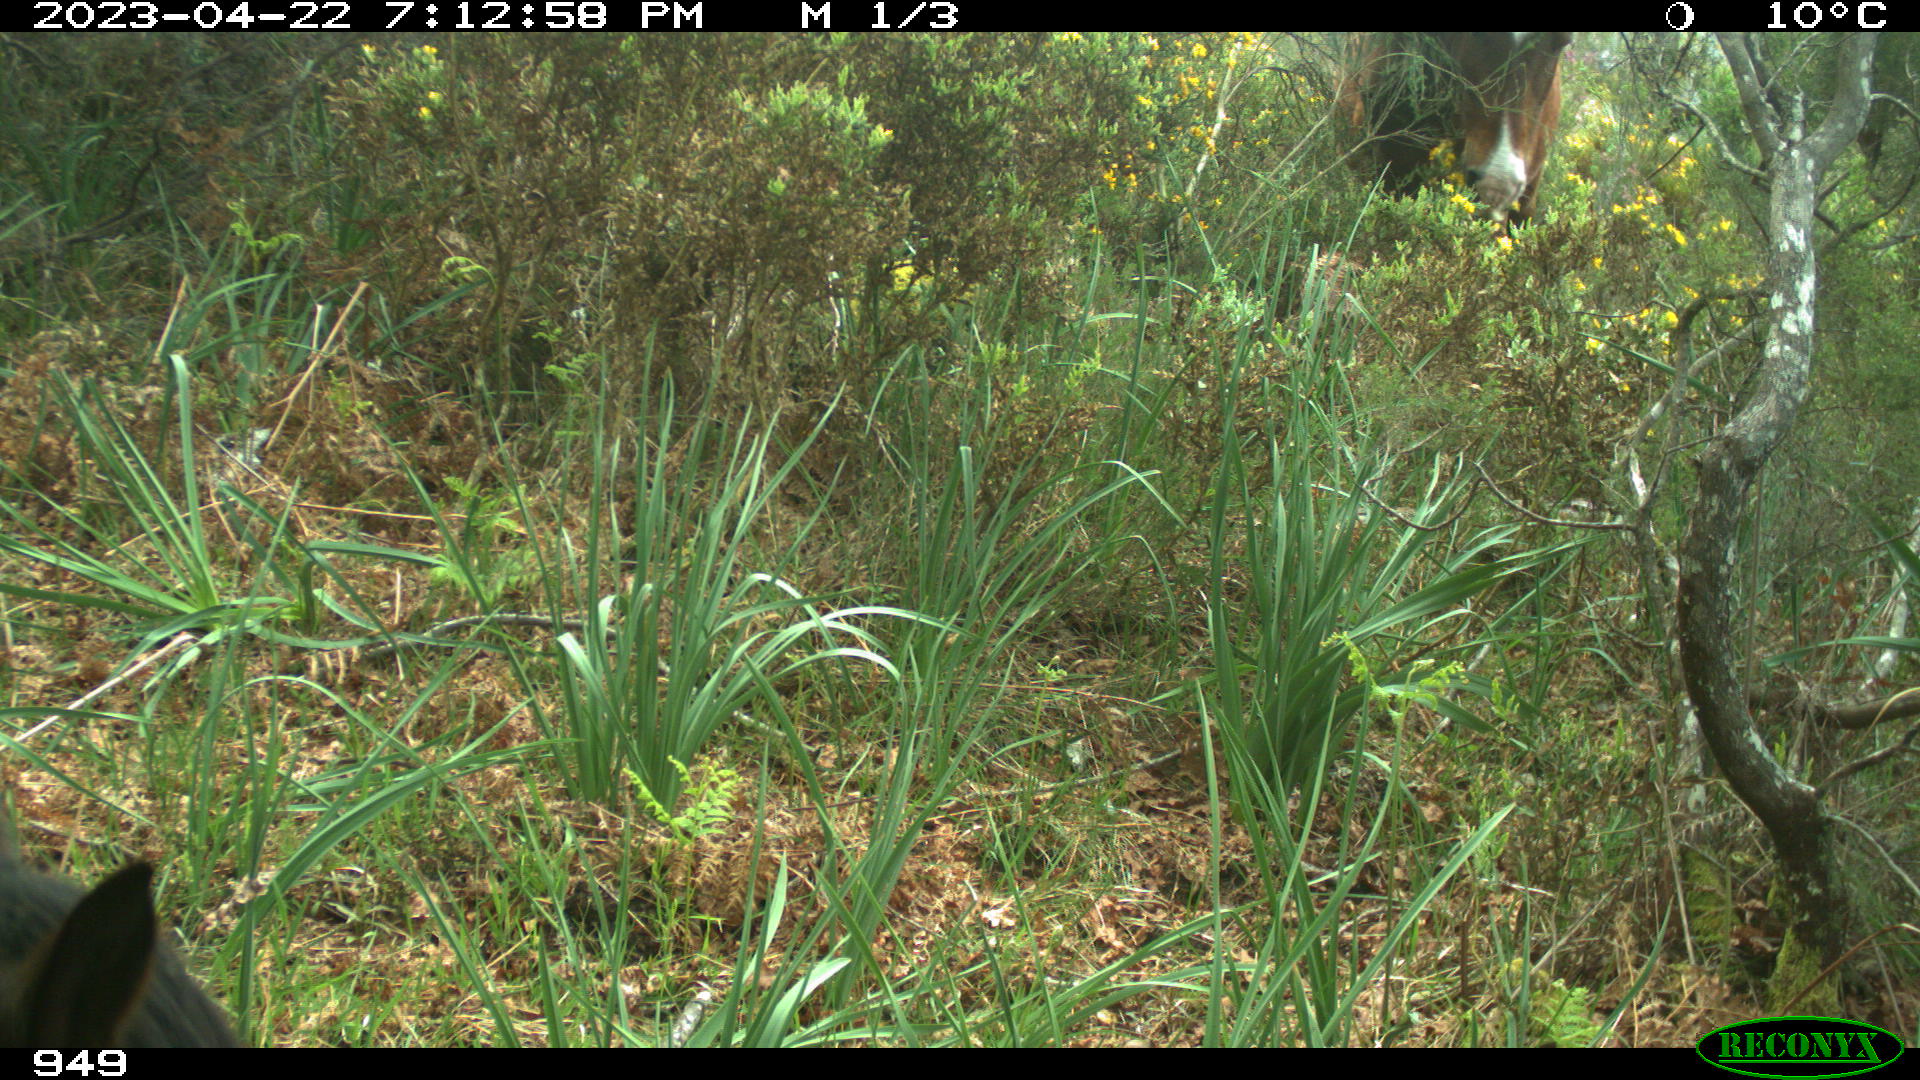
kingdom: Animalia
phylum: Chordata
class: Mammalia
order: Perissodactyla
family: Equidae
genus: Equus
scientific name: Equus caballus
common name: Horse
